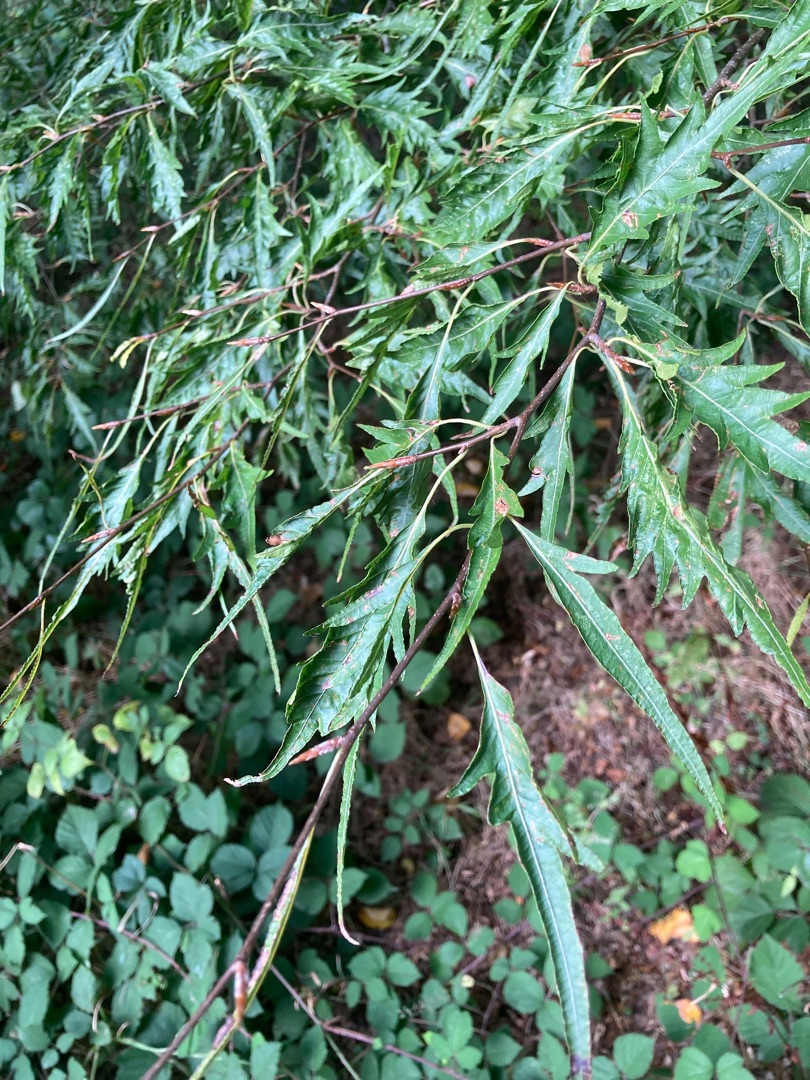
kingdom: Plantae
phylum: Tracheophyta
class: Magnoliopsida
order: Fagales
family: Fagaceae
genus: Fagus
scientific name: Fagus sylvatica
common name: Bøg
